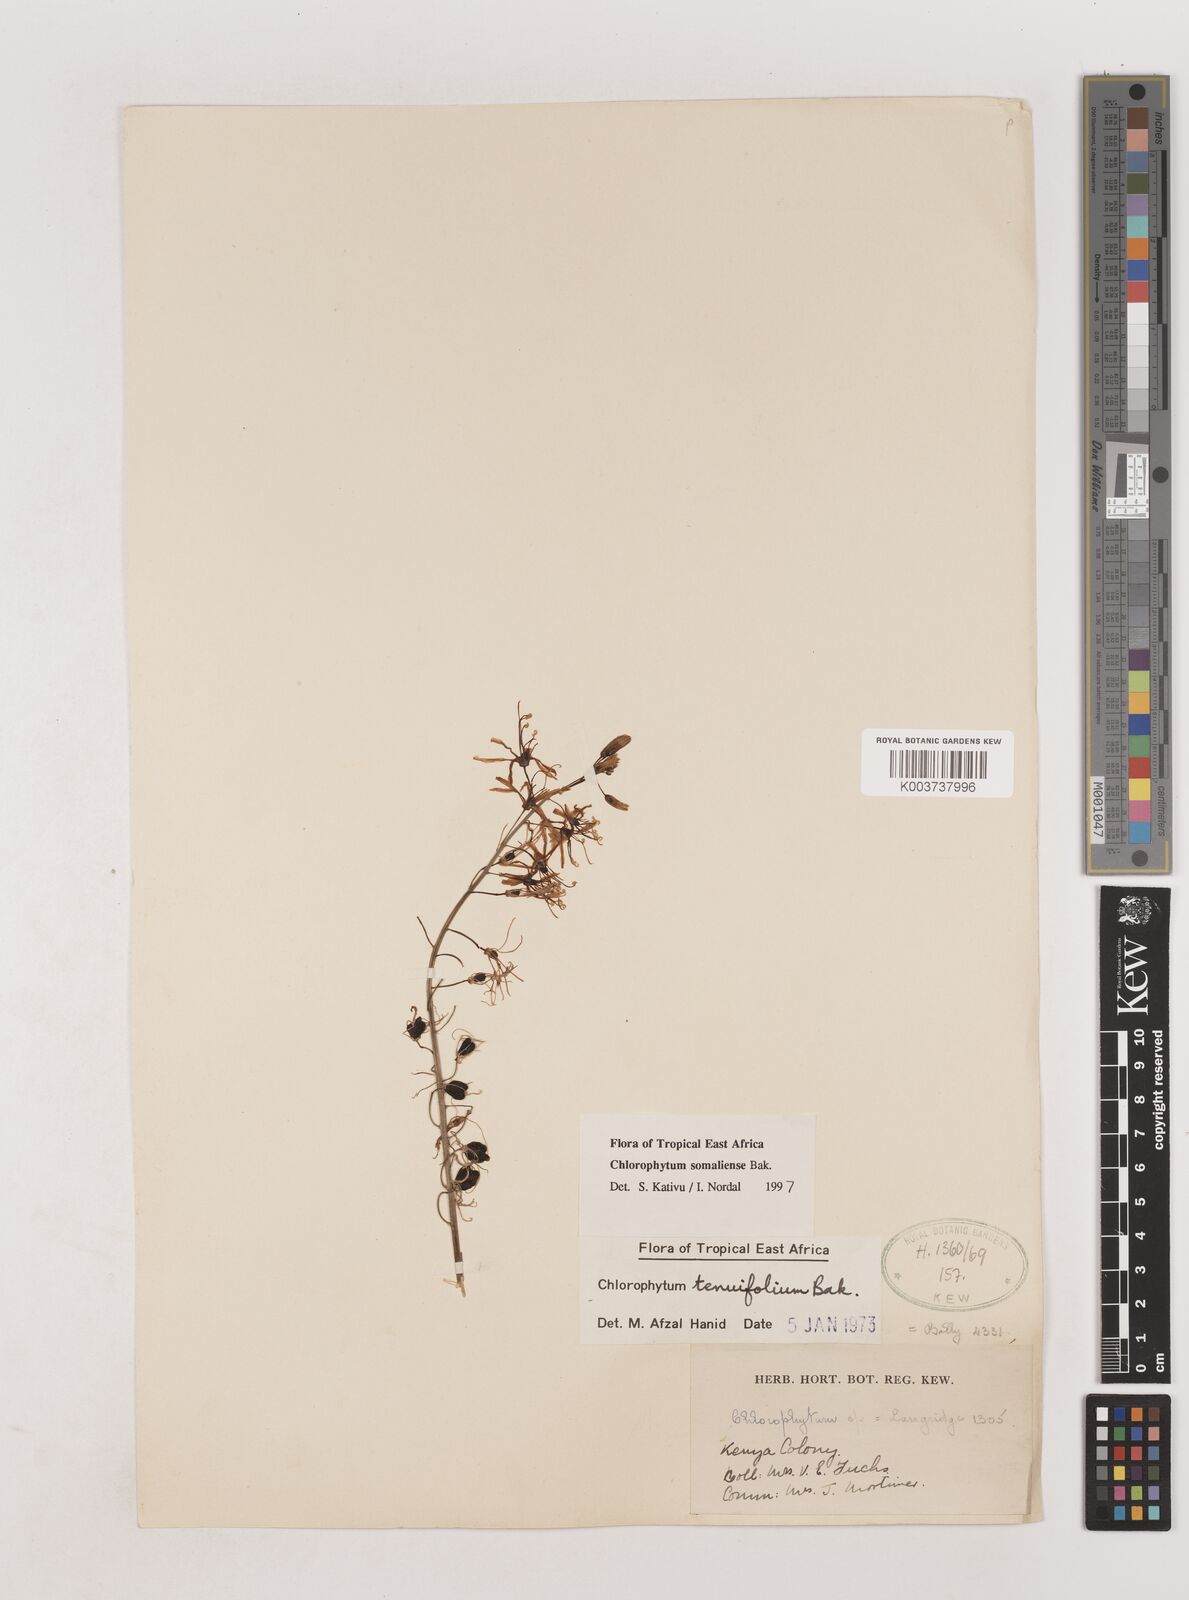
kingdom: Plantae
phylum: Tracheophyta
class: Liliopsida
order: Asparagales
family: Asparagaceae
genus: Chlorophytum
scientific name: Chlorophytum somaliense
